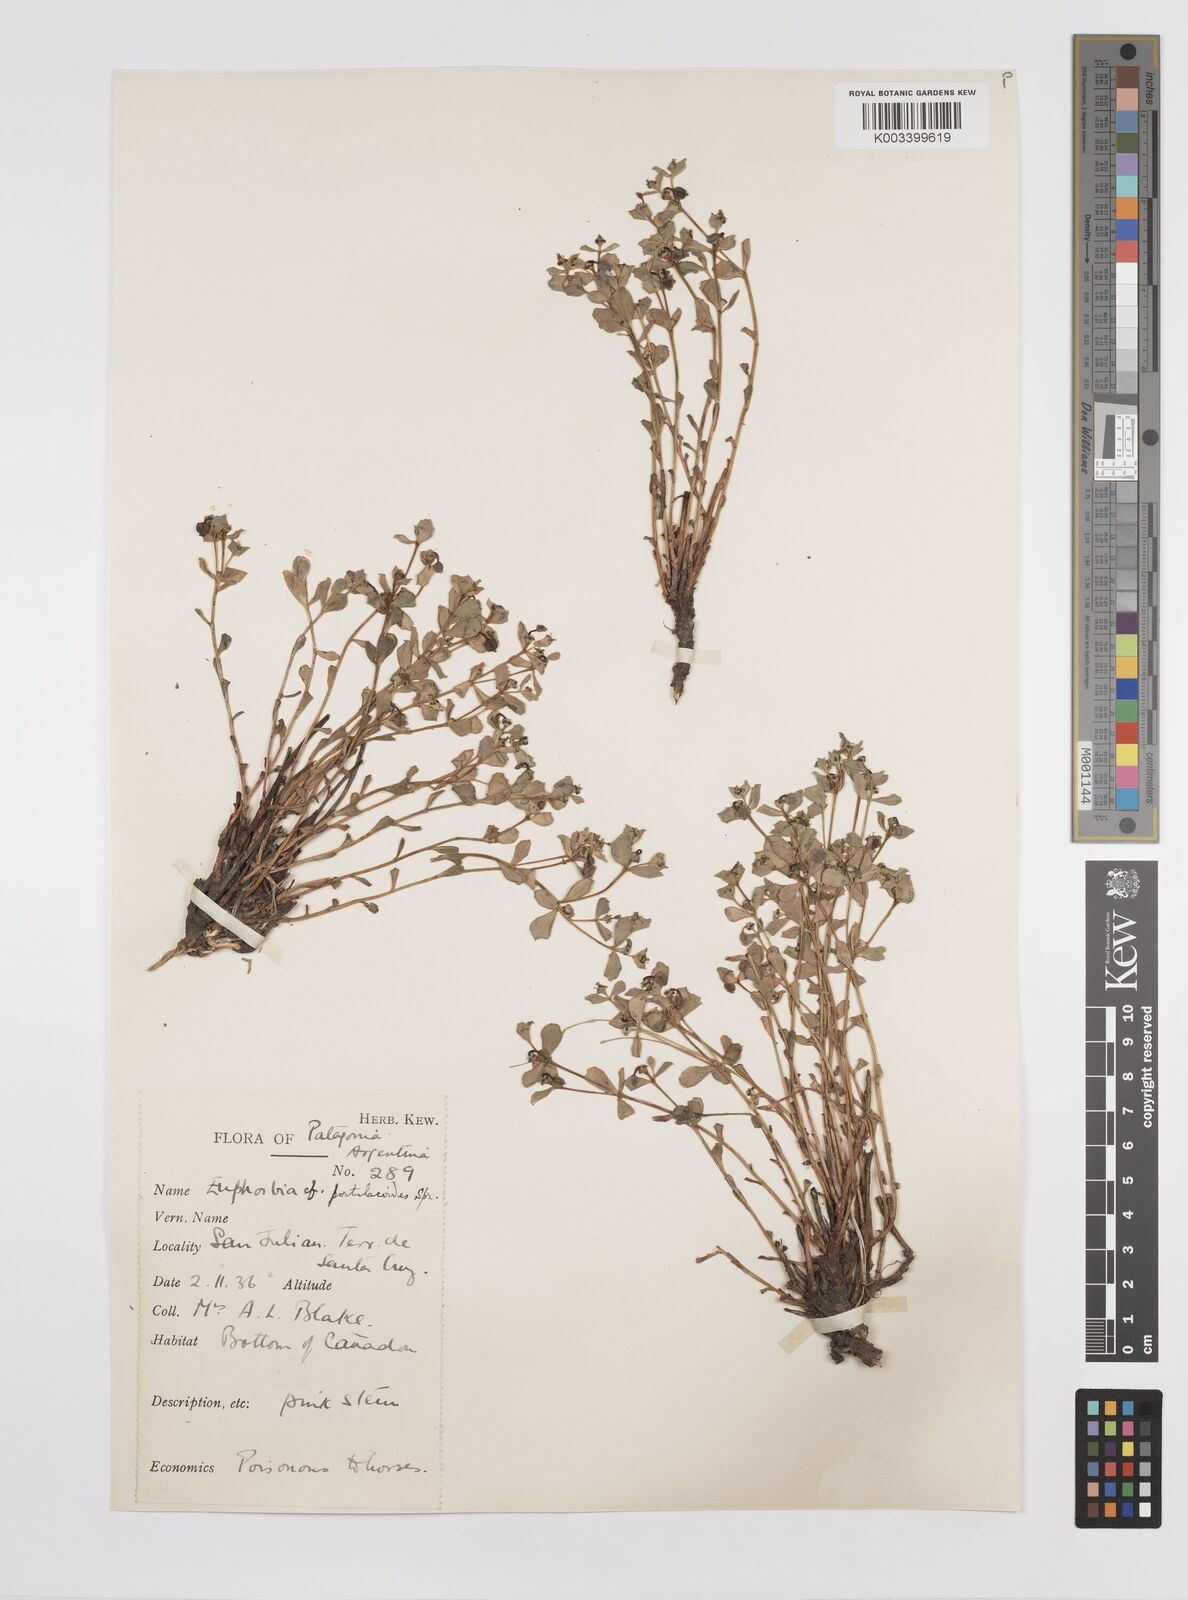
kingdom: Plantae
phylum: Tracheophyta
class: Magnoliopsida
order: Malpighiales
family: Euphorbiaceae
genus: Euphorbia
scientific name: Euphorbia portulacoides
